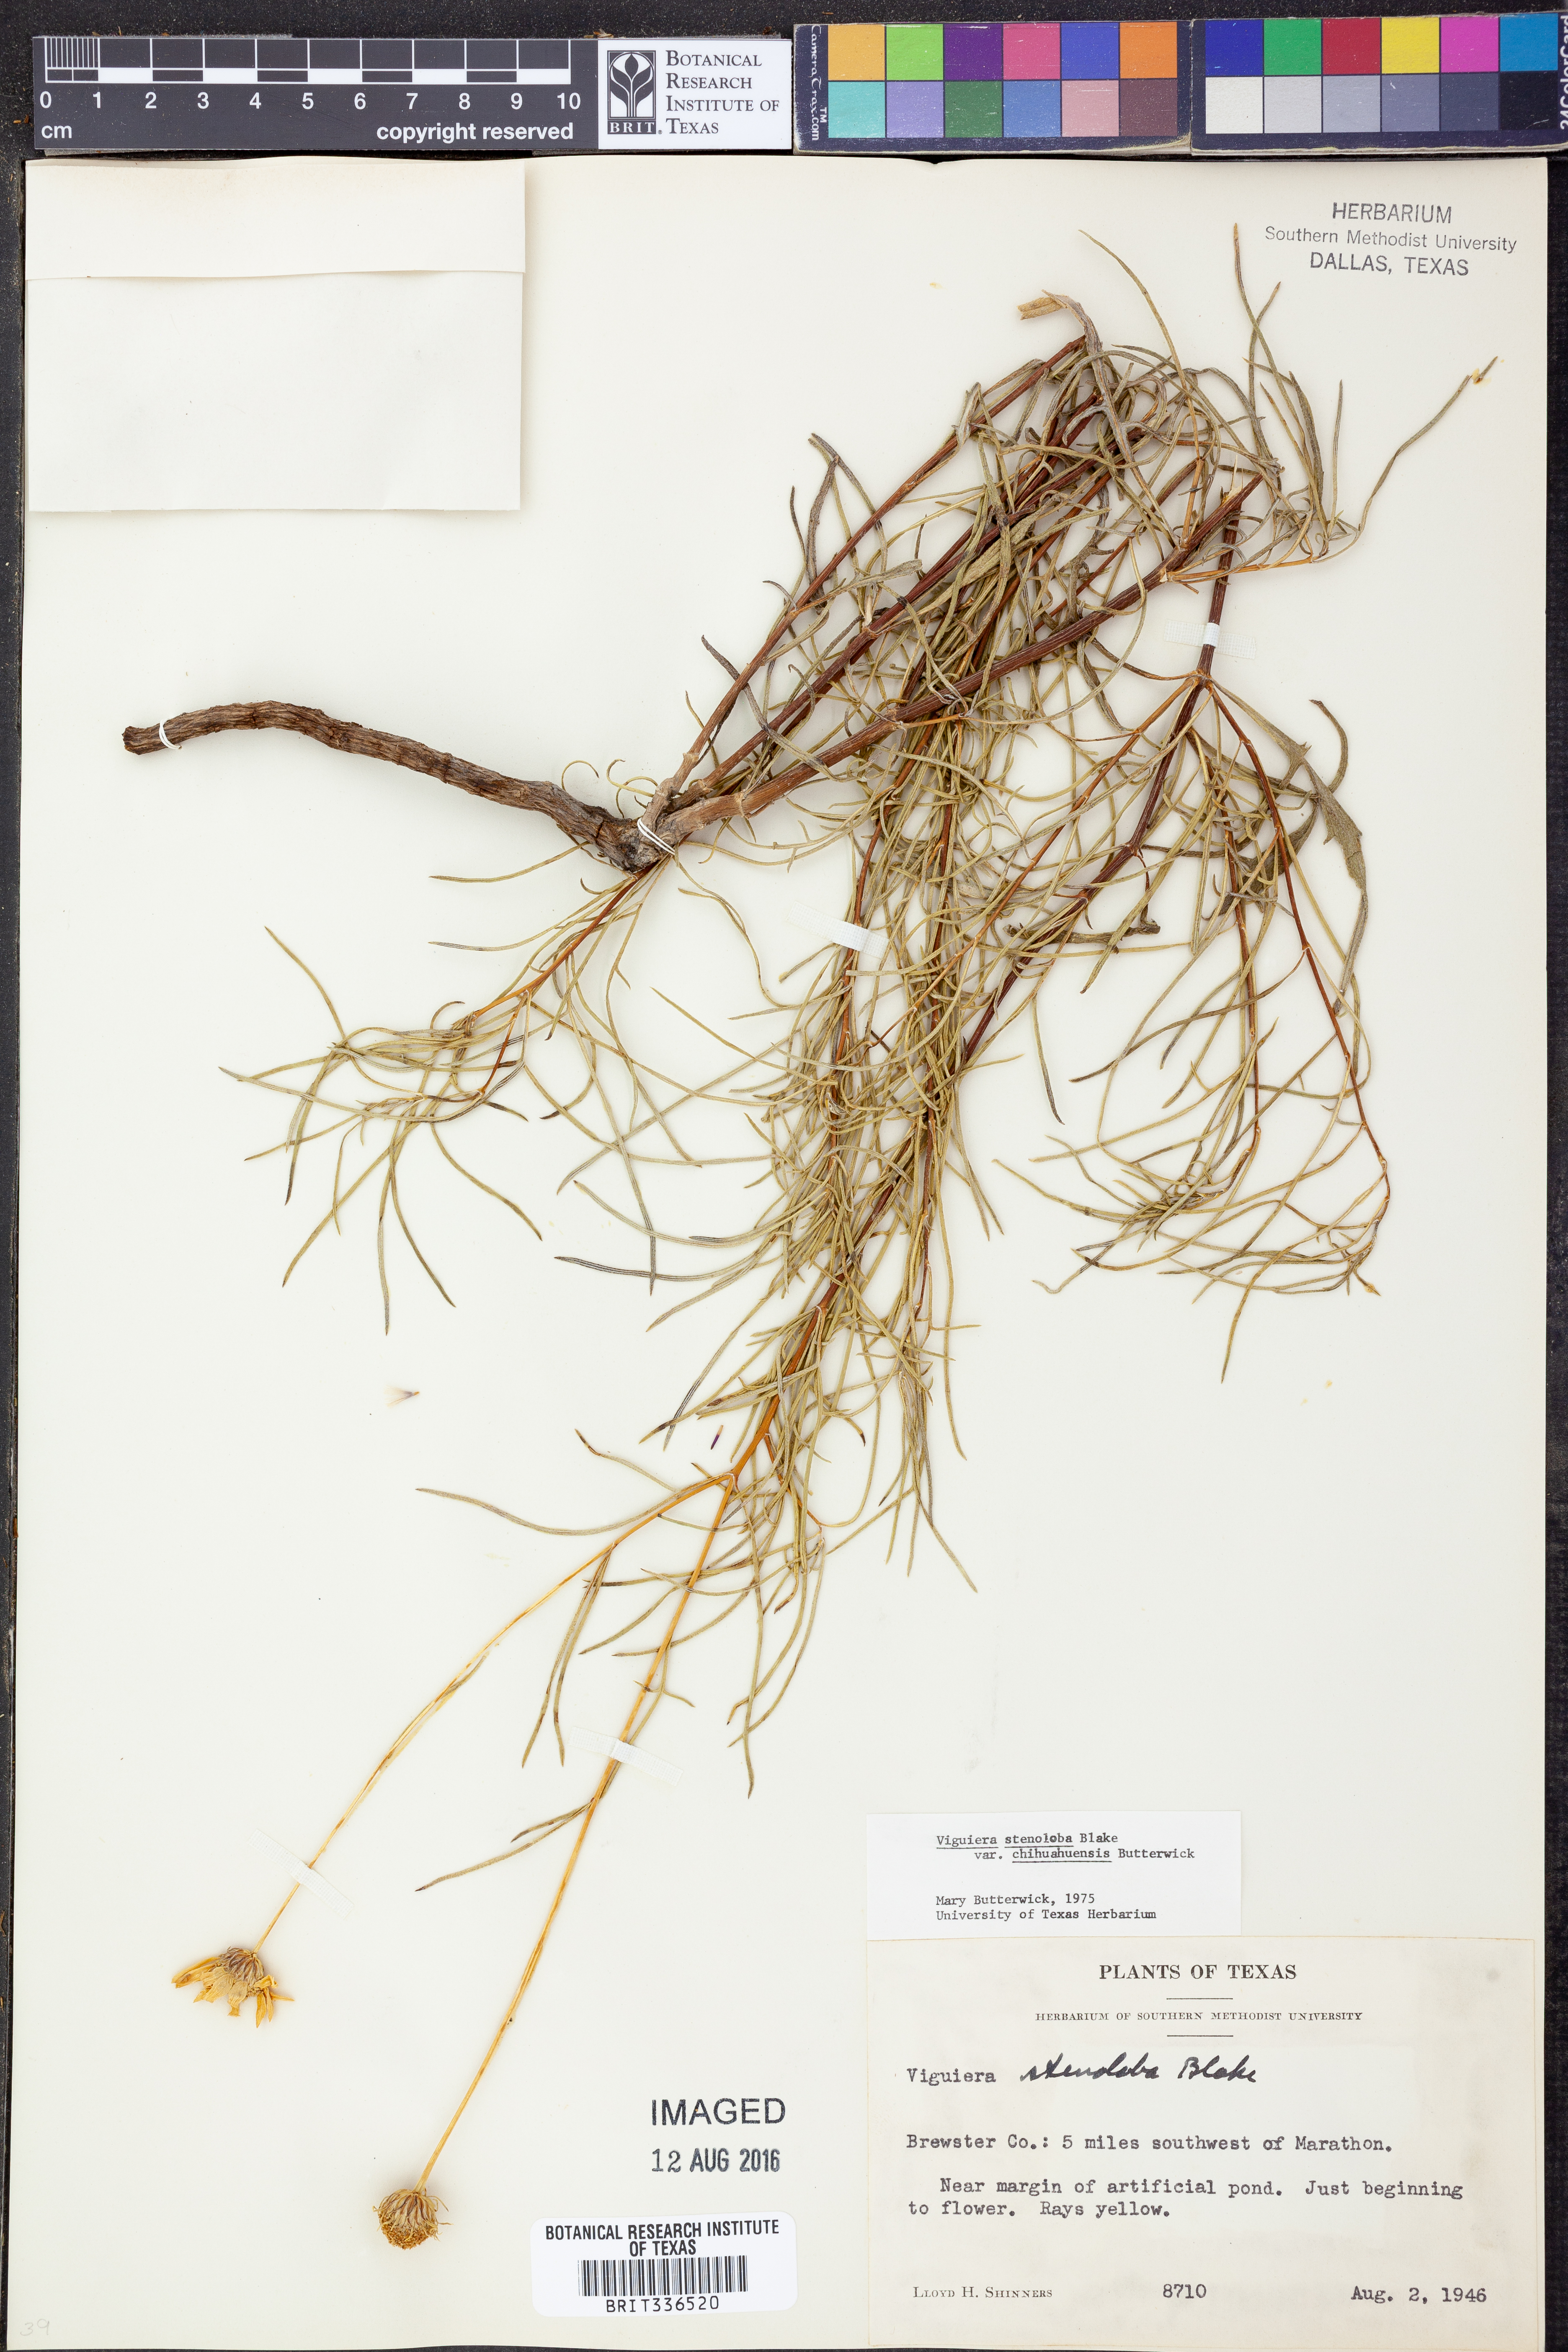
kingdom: Plantae
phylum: Tracheophyta
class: Magnoliopsida
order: Asterales
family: Asteraceae
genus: Sidneya
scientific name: Sidneya tenuifolia
